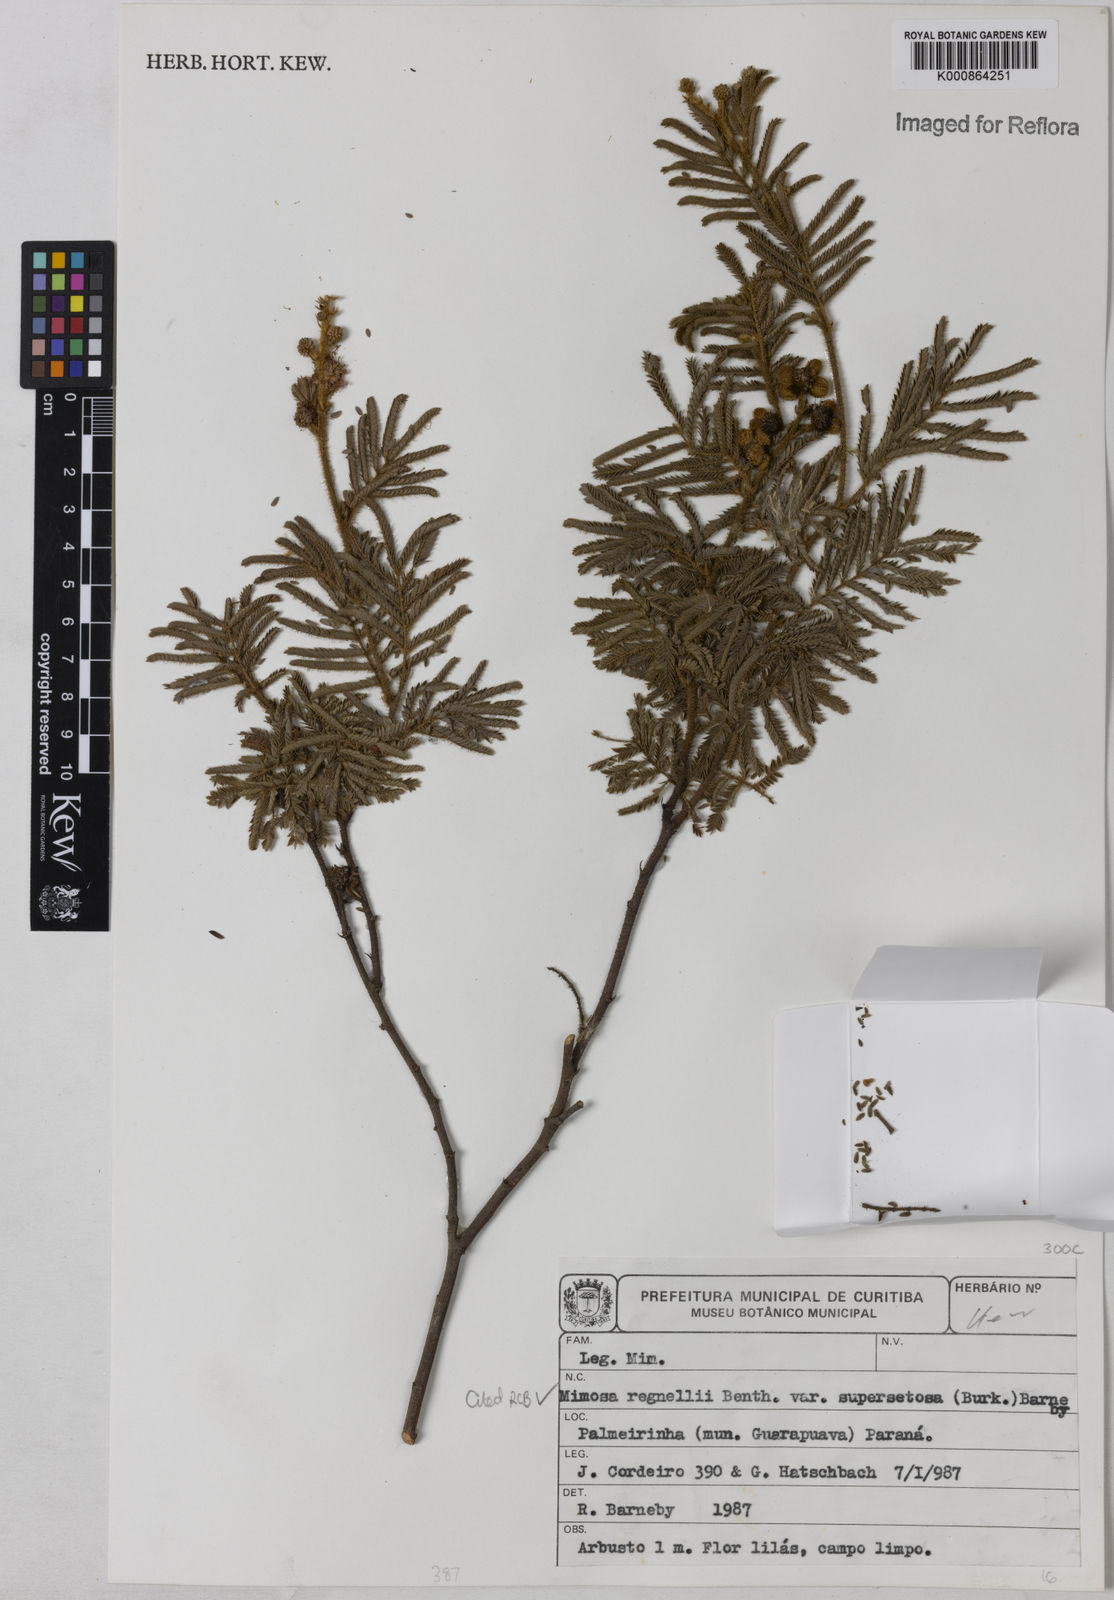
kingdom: Plantae
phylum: Tracheophyta
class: Magnoliopsida
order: Fabales
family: Fabaceae
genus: Mimosa
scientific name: Mimosa regnellii
